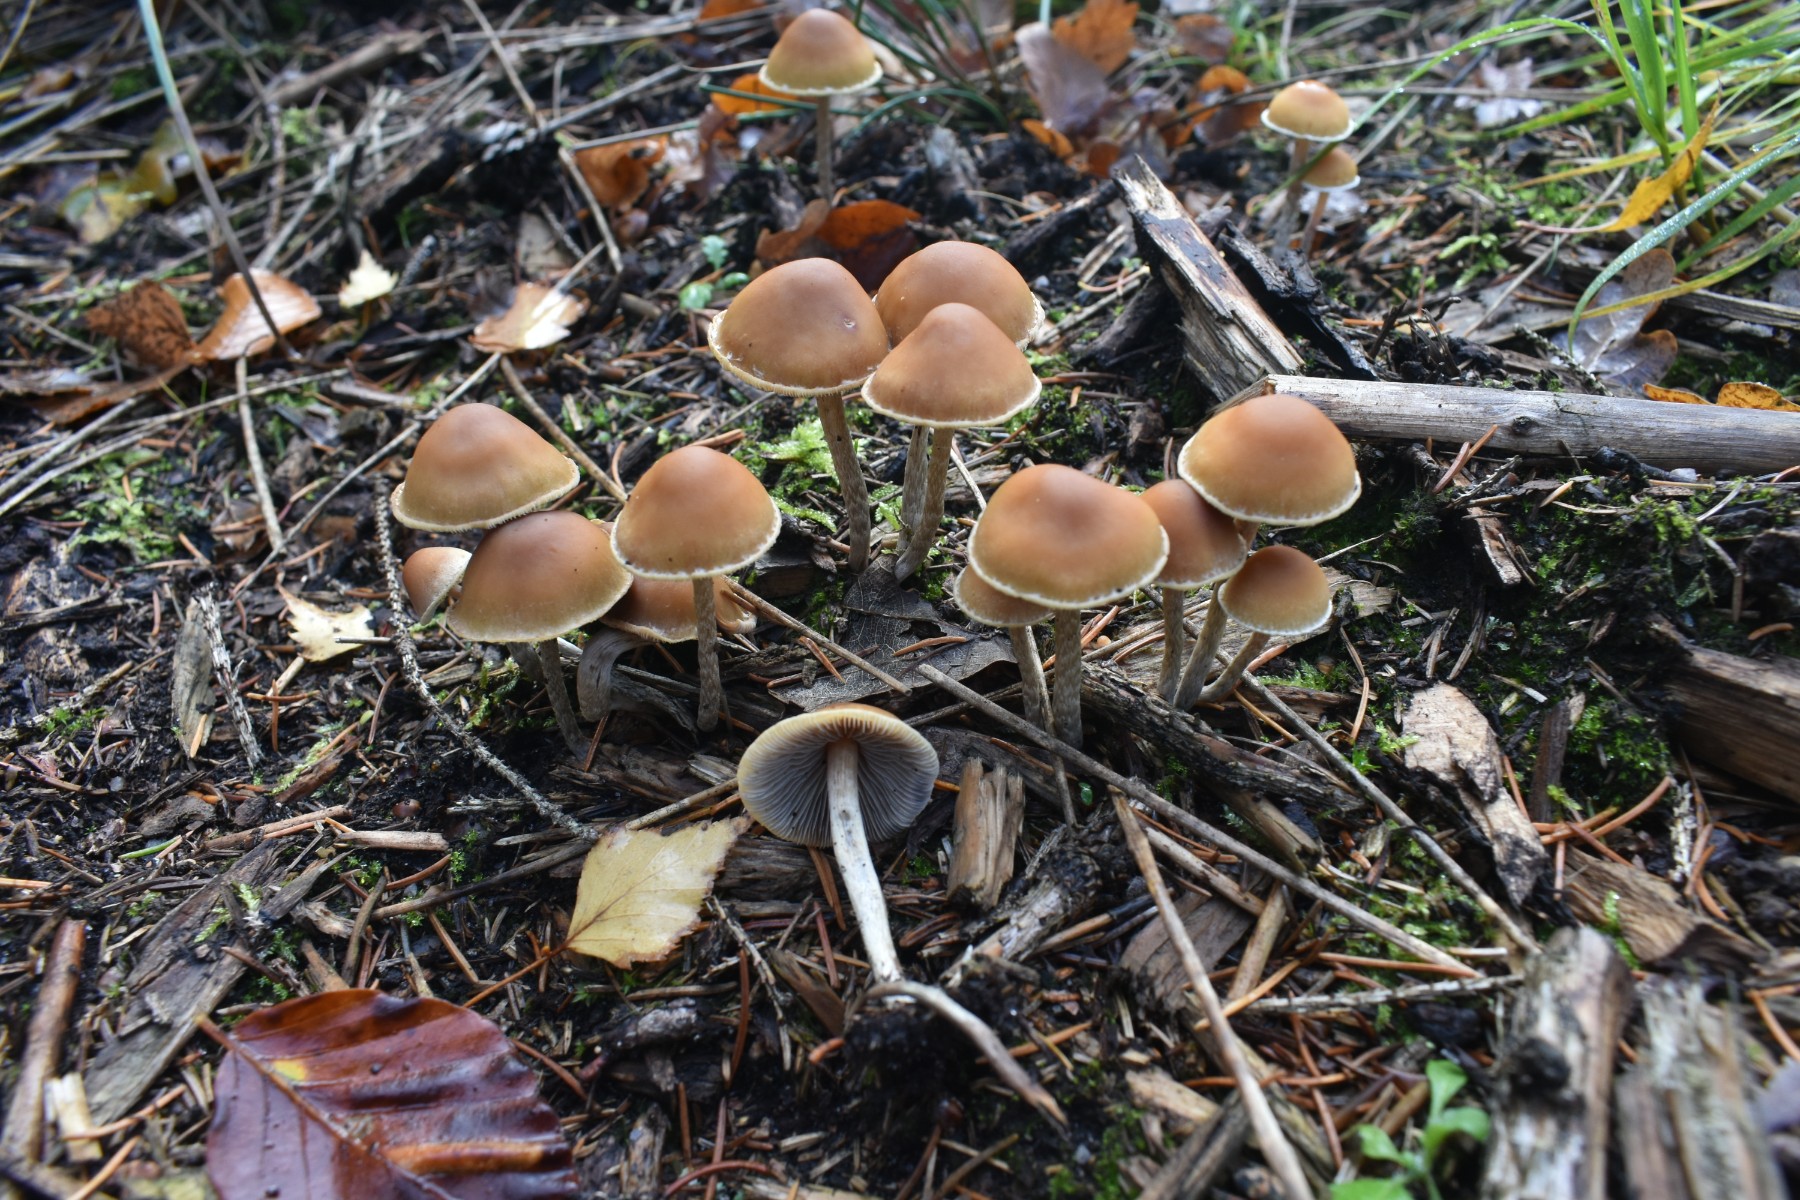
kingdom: Fungi
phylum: Basidiomycota
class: Agaricomycetes
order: Agaricales
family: Strophariaceae
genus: Hypholoma
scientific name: Hypholoma marginatum
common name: enlig svovlhat
